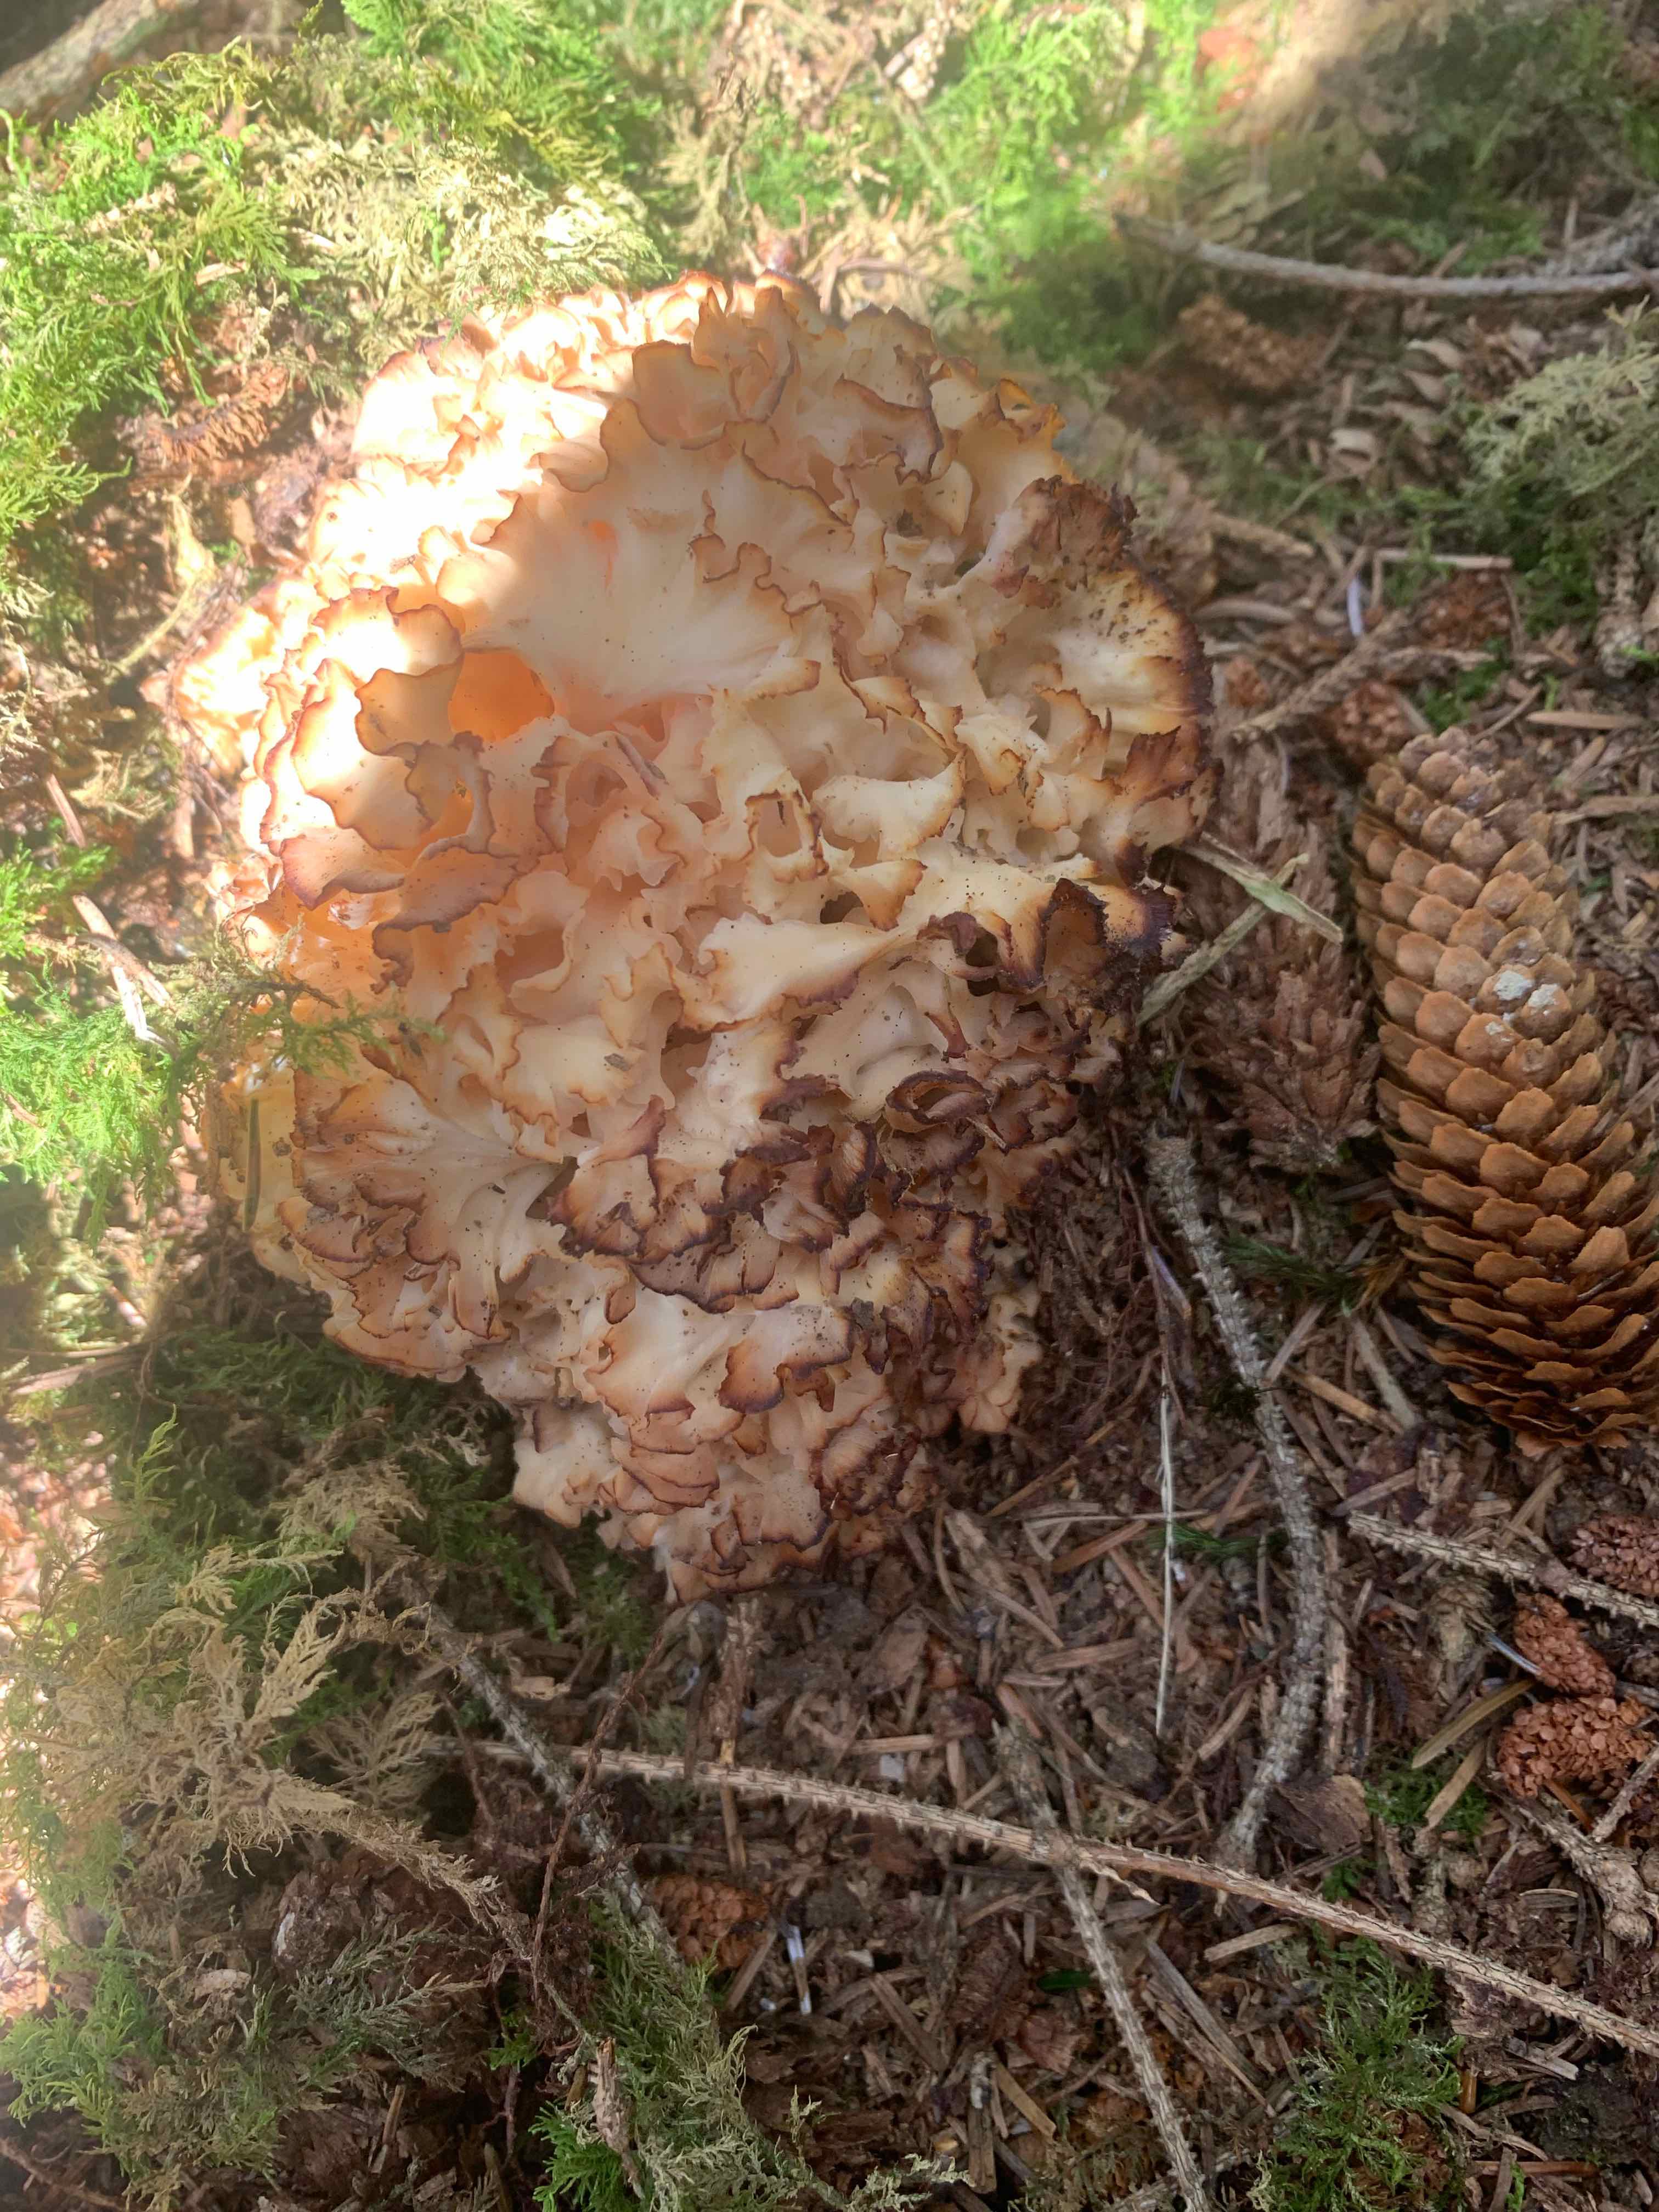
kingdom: Fungi
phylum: Basidiomycota
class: Agaricomycetes
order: Polyporales
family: Sparassidaceae
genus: Sparassis
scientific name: Sparassis crispa
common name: kruset blomkålssvamp
